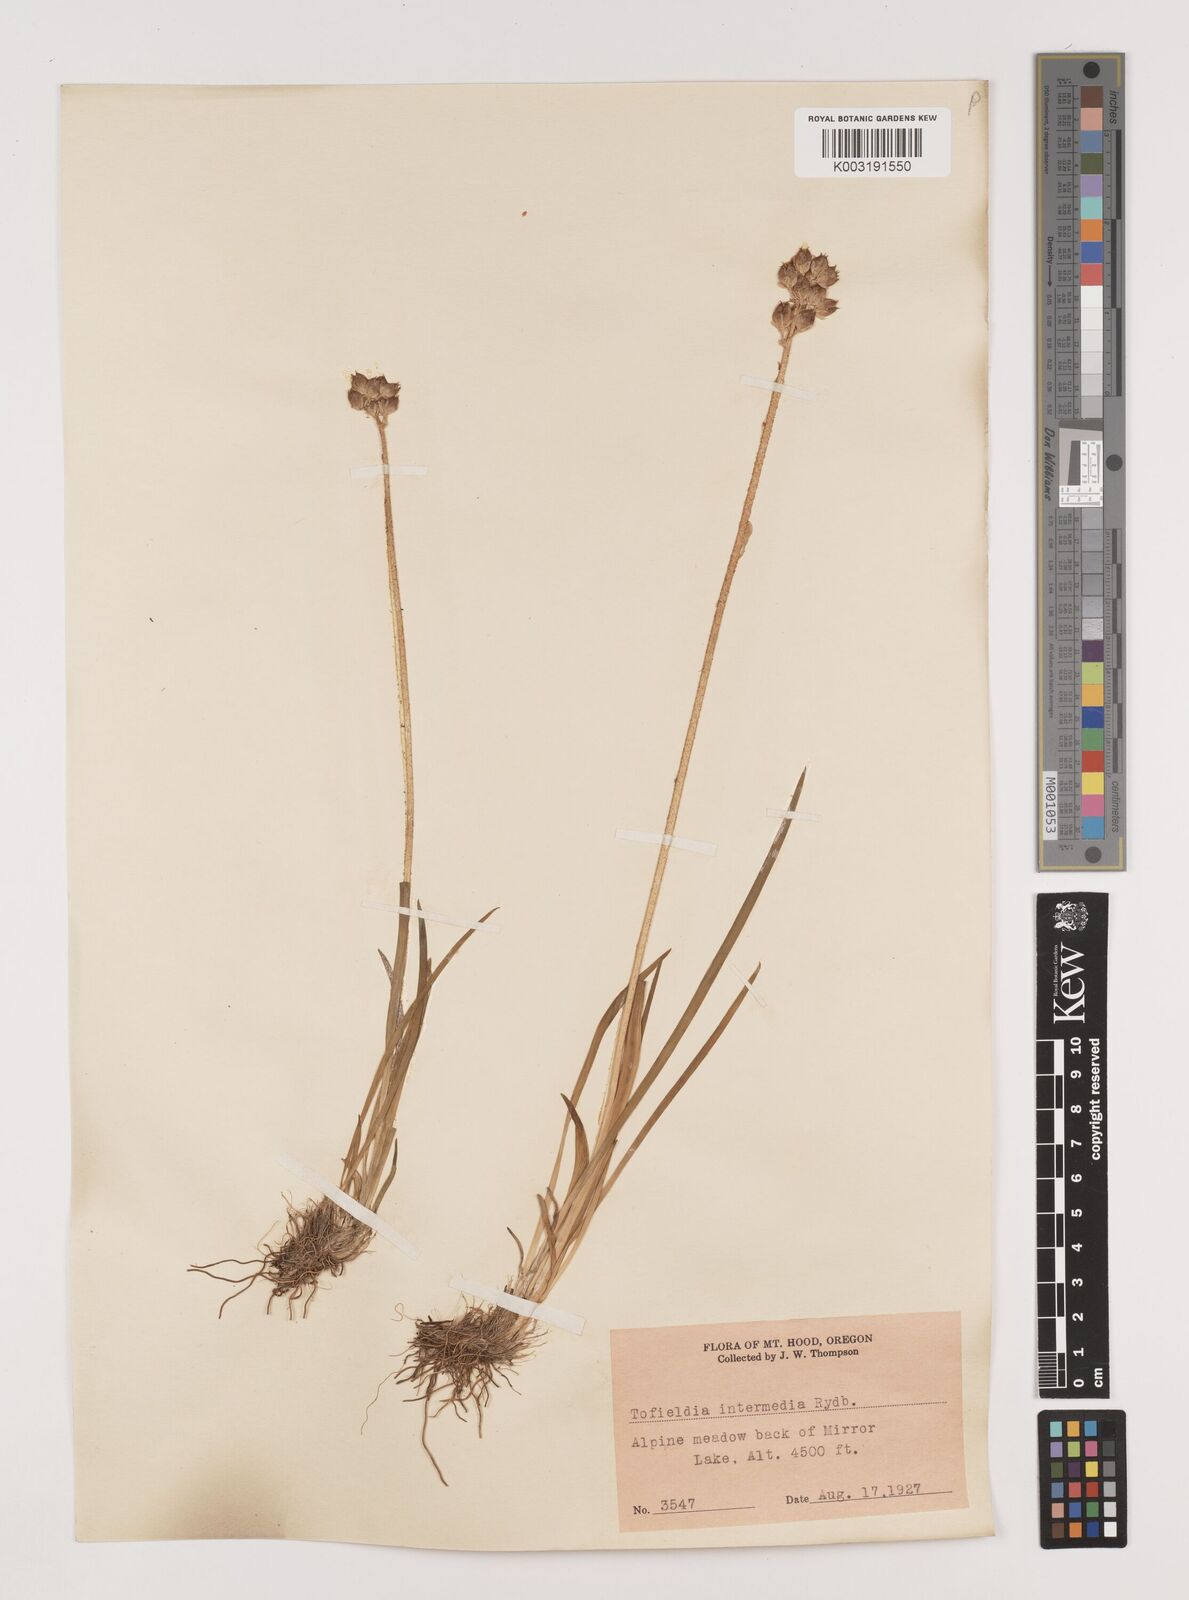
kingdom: Plantae
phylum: Tracheophyta
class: Liliopsida
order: Alismatales
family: Tofieldiaceae
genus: Triantha
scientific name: Triantha occidentalis
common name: Western false asphodel
